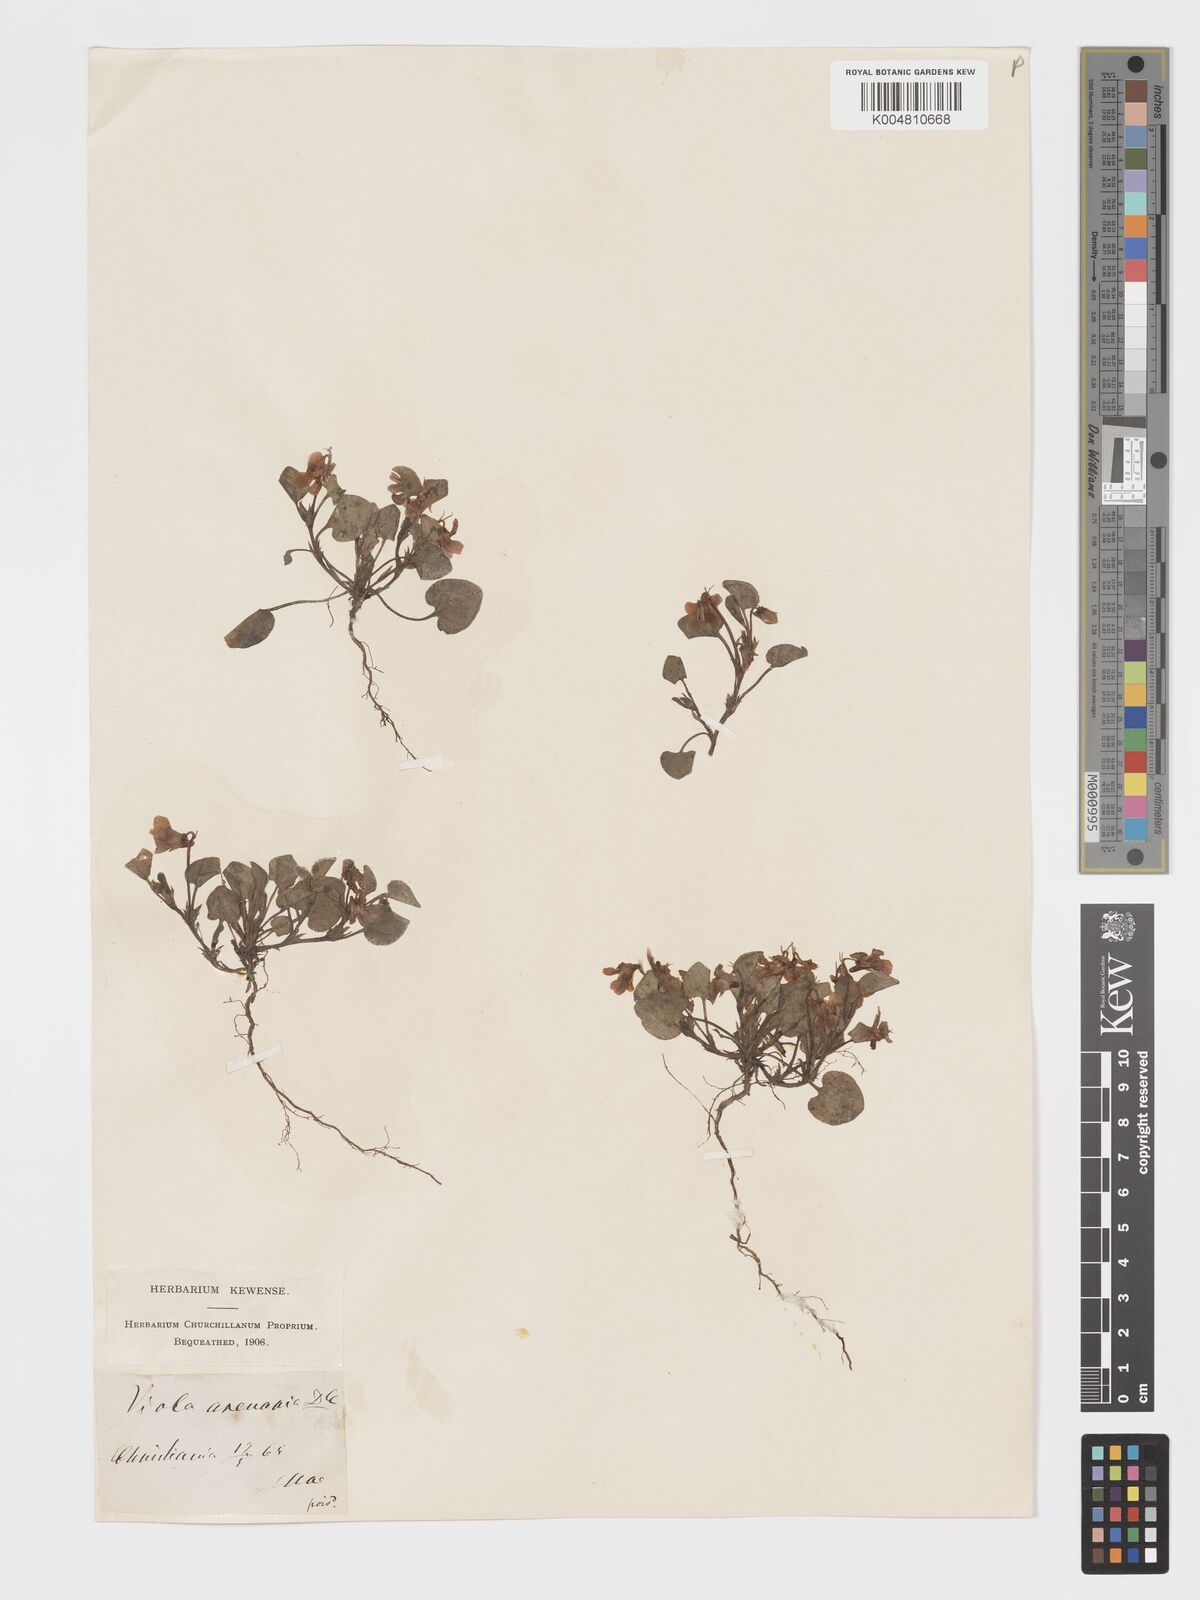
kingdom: Plantae
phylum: Tracheophyta
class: Magnoliopsida
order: Malpighiales
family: Violaceae
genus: Viola
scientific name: Viola rupestris
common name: Teesdale violet
